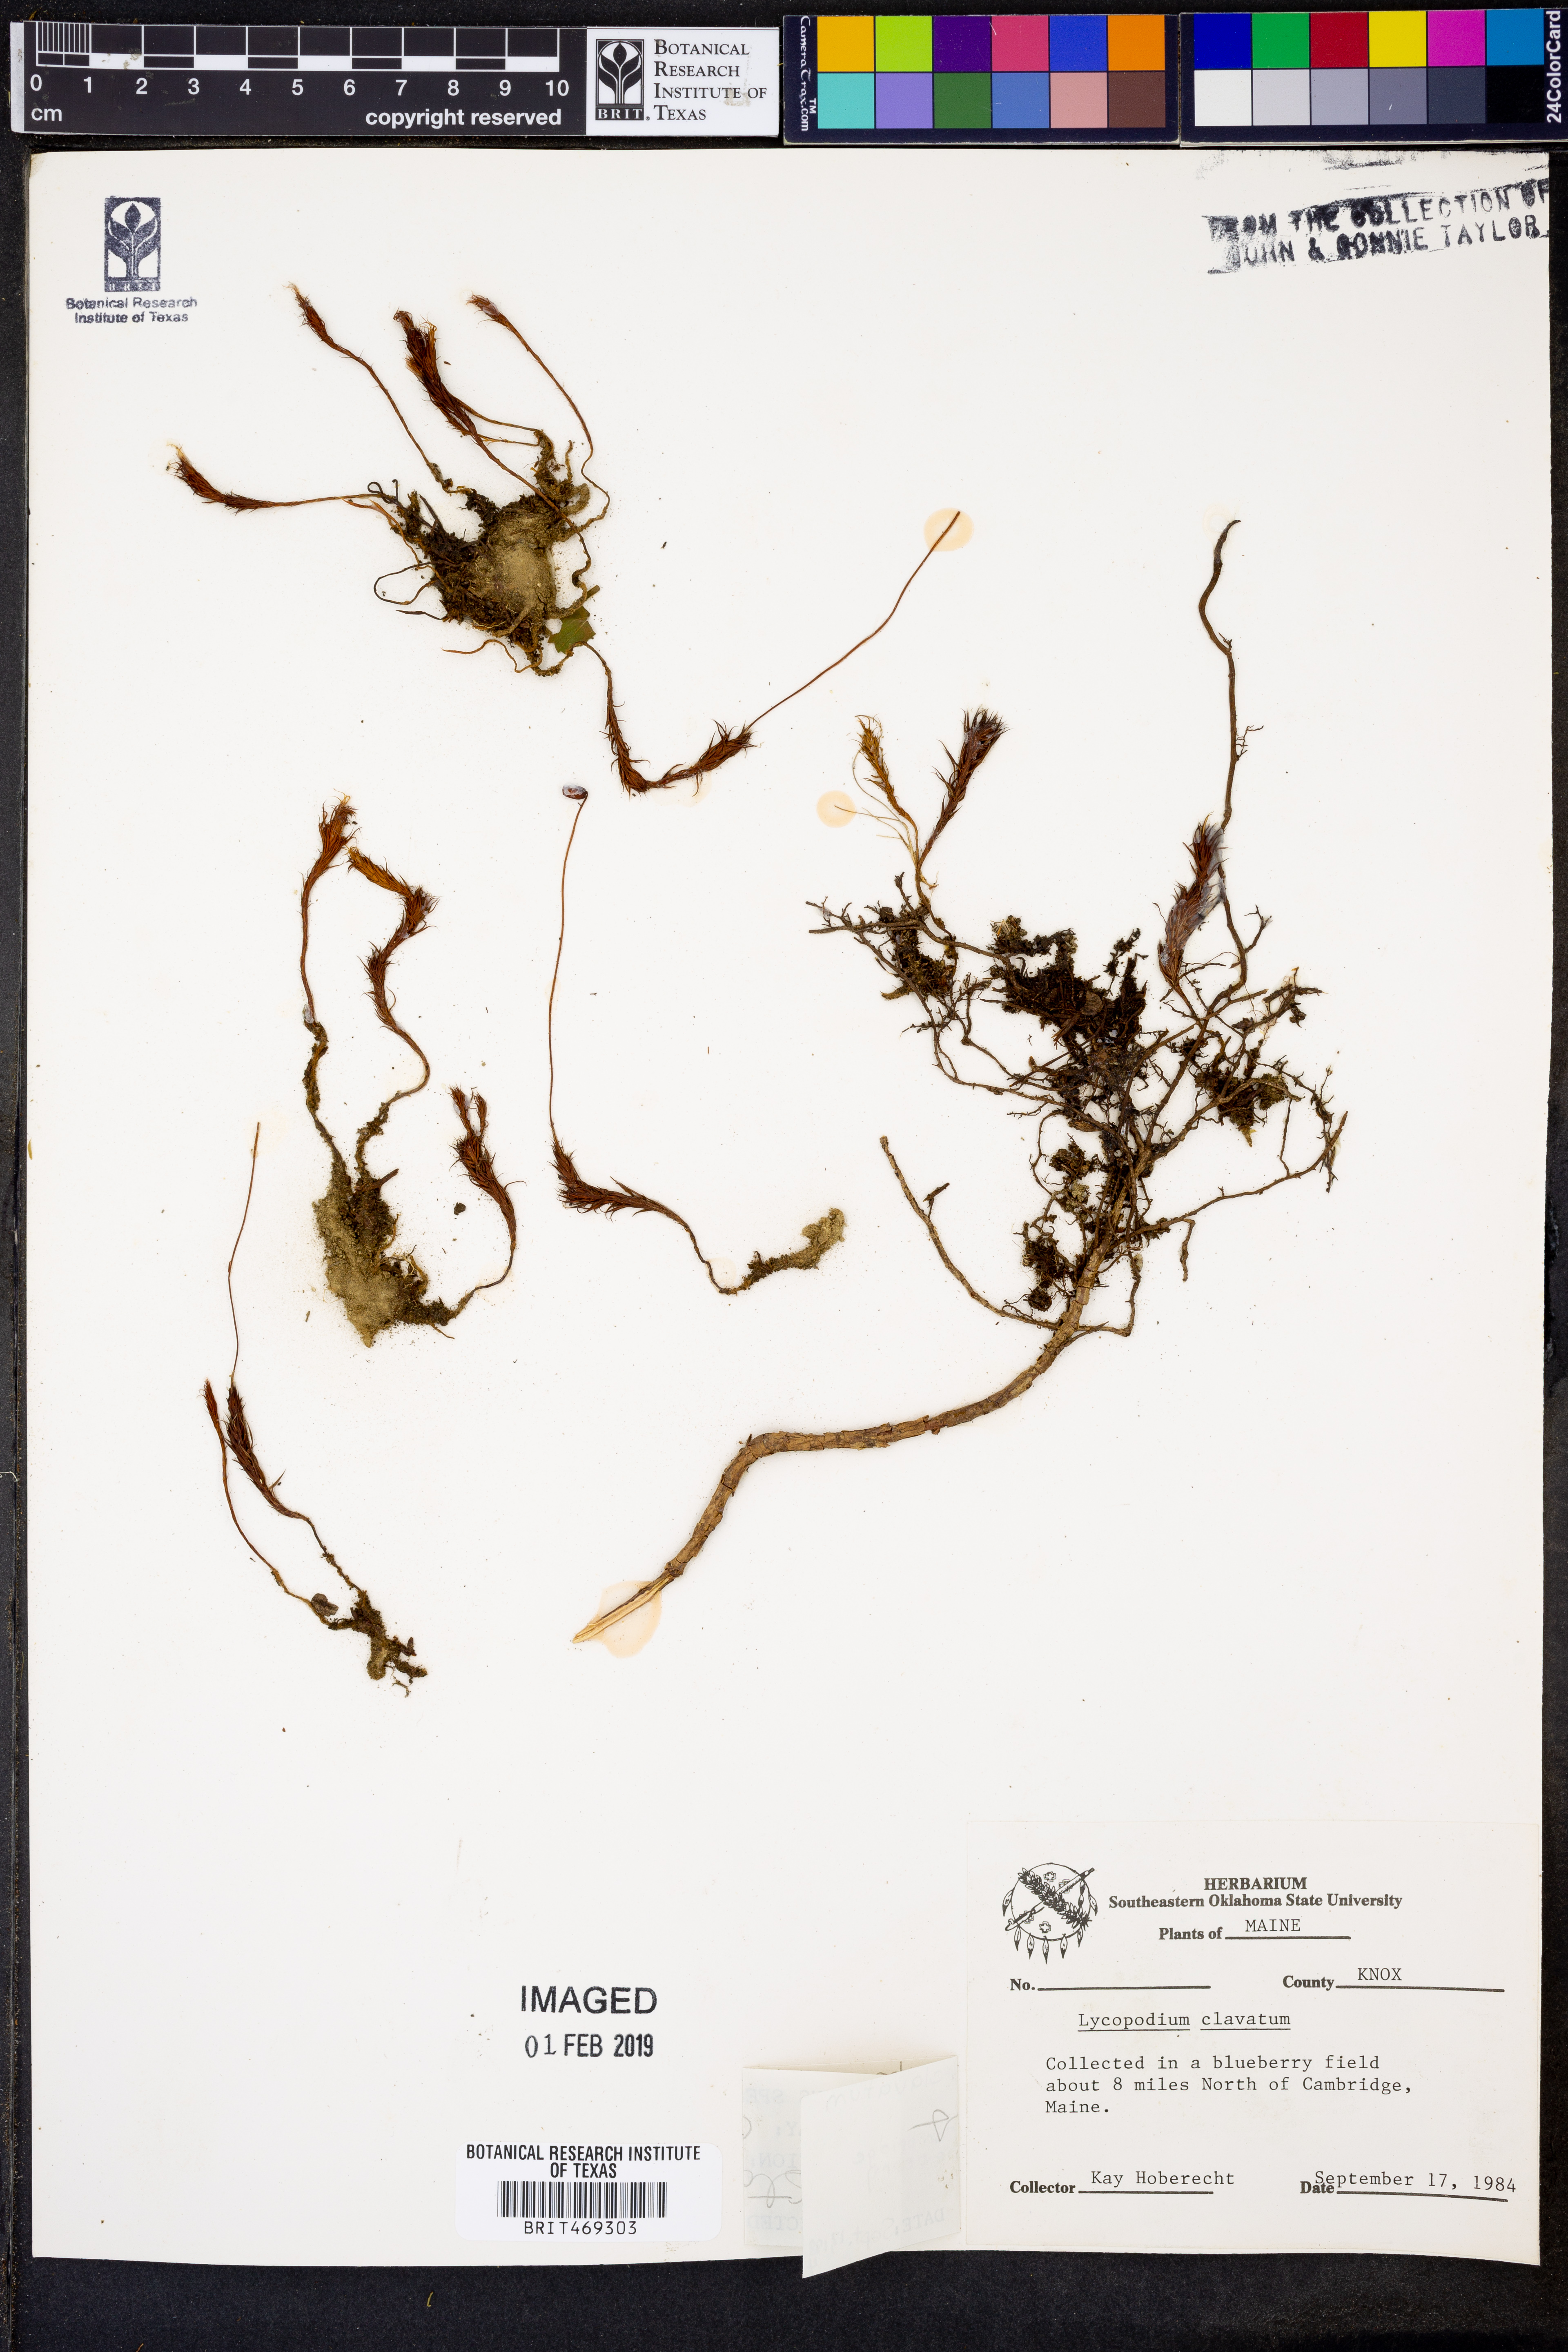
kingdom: Plantae
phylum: Tracheophyta
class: Lycopodiopsida
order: Lycopodiales
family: Lycopodiaceae
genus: Lycopodium
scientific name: Lycopodium clavatum
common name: Stag's-horn clubmoss
